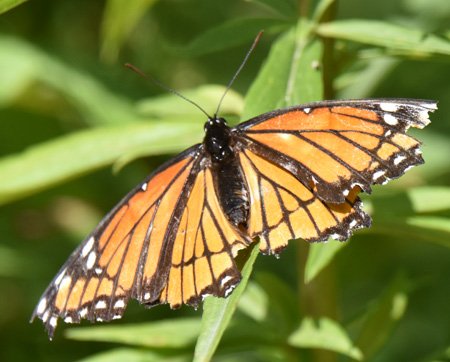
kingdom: Animalia
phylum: Arthropoda
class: Insecta
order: Lepidoptera
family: Nymphalidae
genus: Limenitis
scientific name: Limenitis archippus
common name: Viceroy
